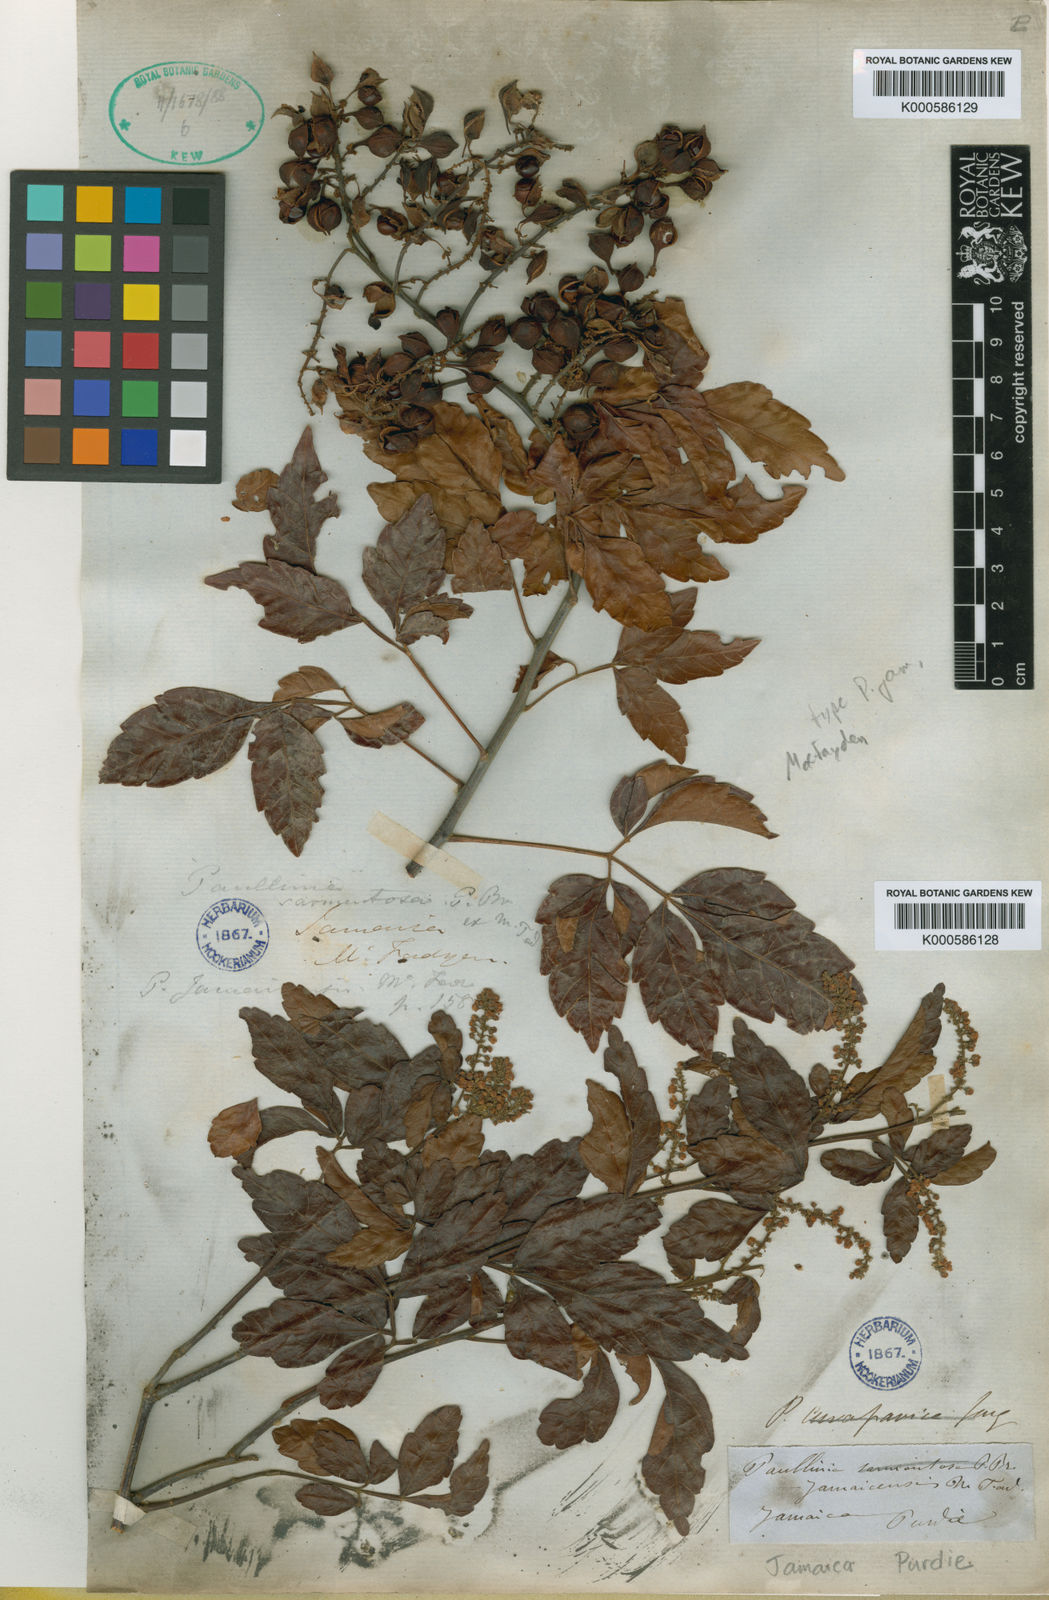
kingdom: Plantae
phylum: Tracheophyta
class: Magnoliopsida
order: Sapindales
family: Sapindaceae
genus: Paullinia
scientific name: Paullinia jamaicensis
